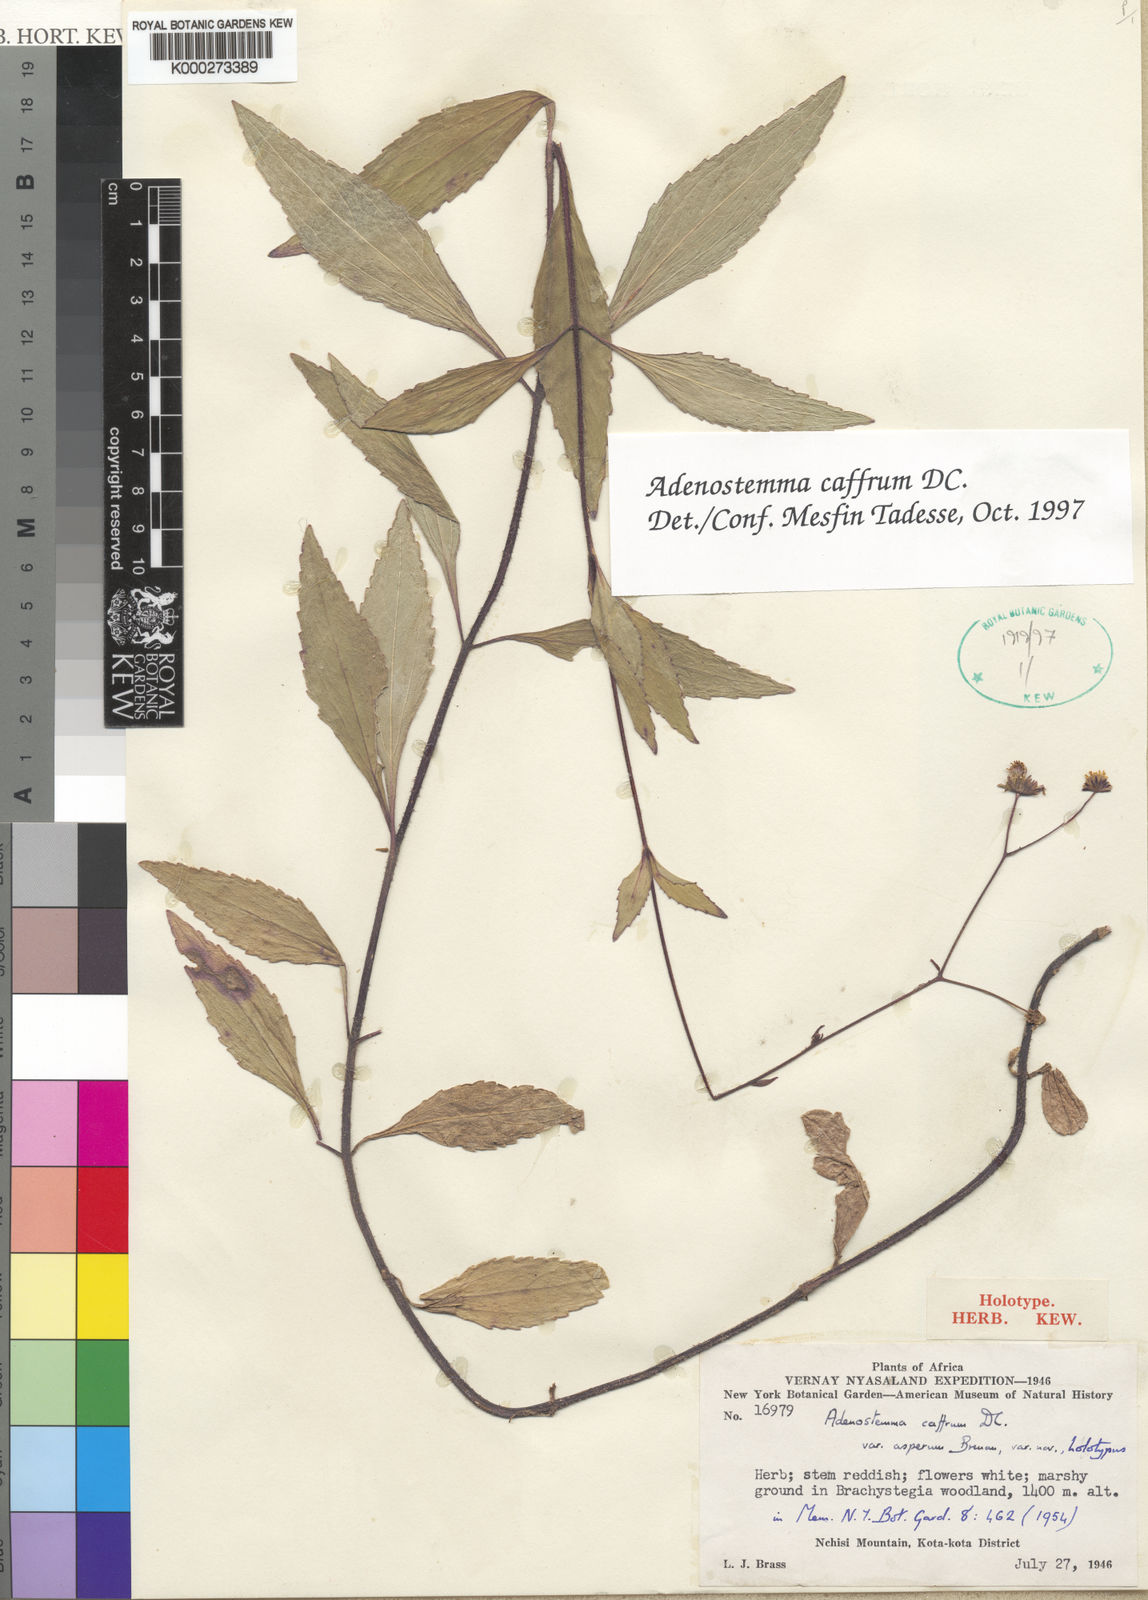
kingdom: Plantae
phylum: Tracheophyta
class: Magnoliopsida
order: Asterales
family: Asteraceae
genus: Adenostemma
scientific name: Adenostemma caffrum
